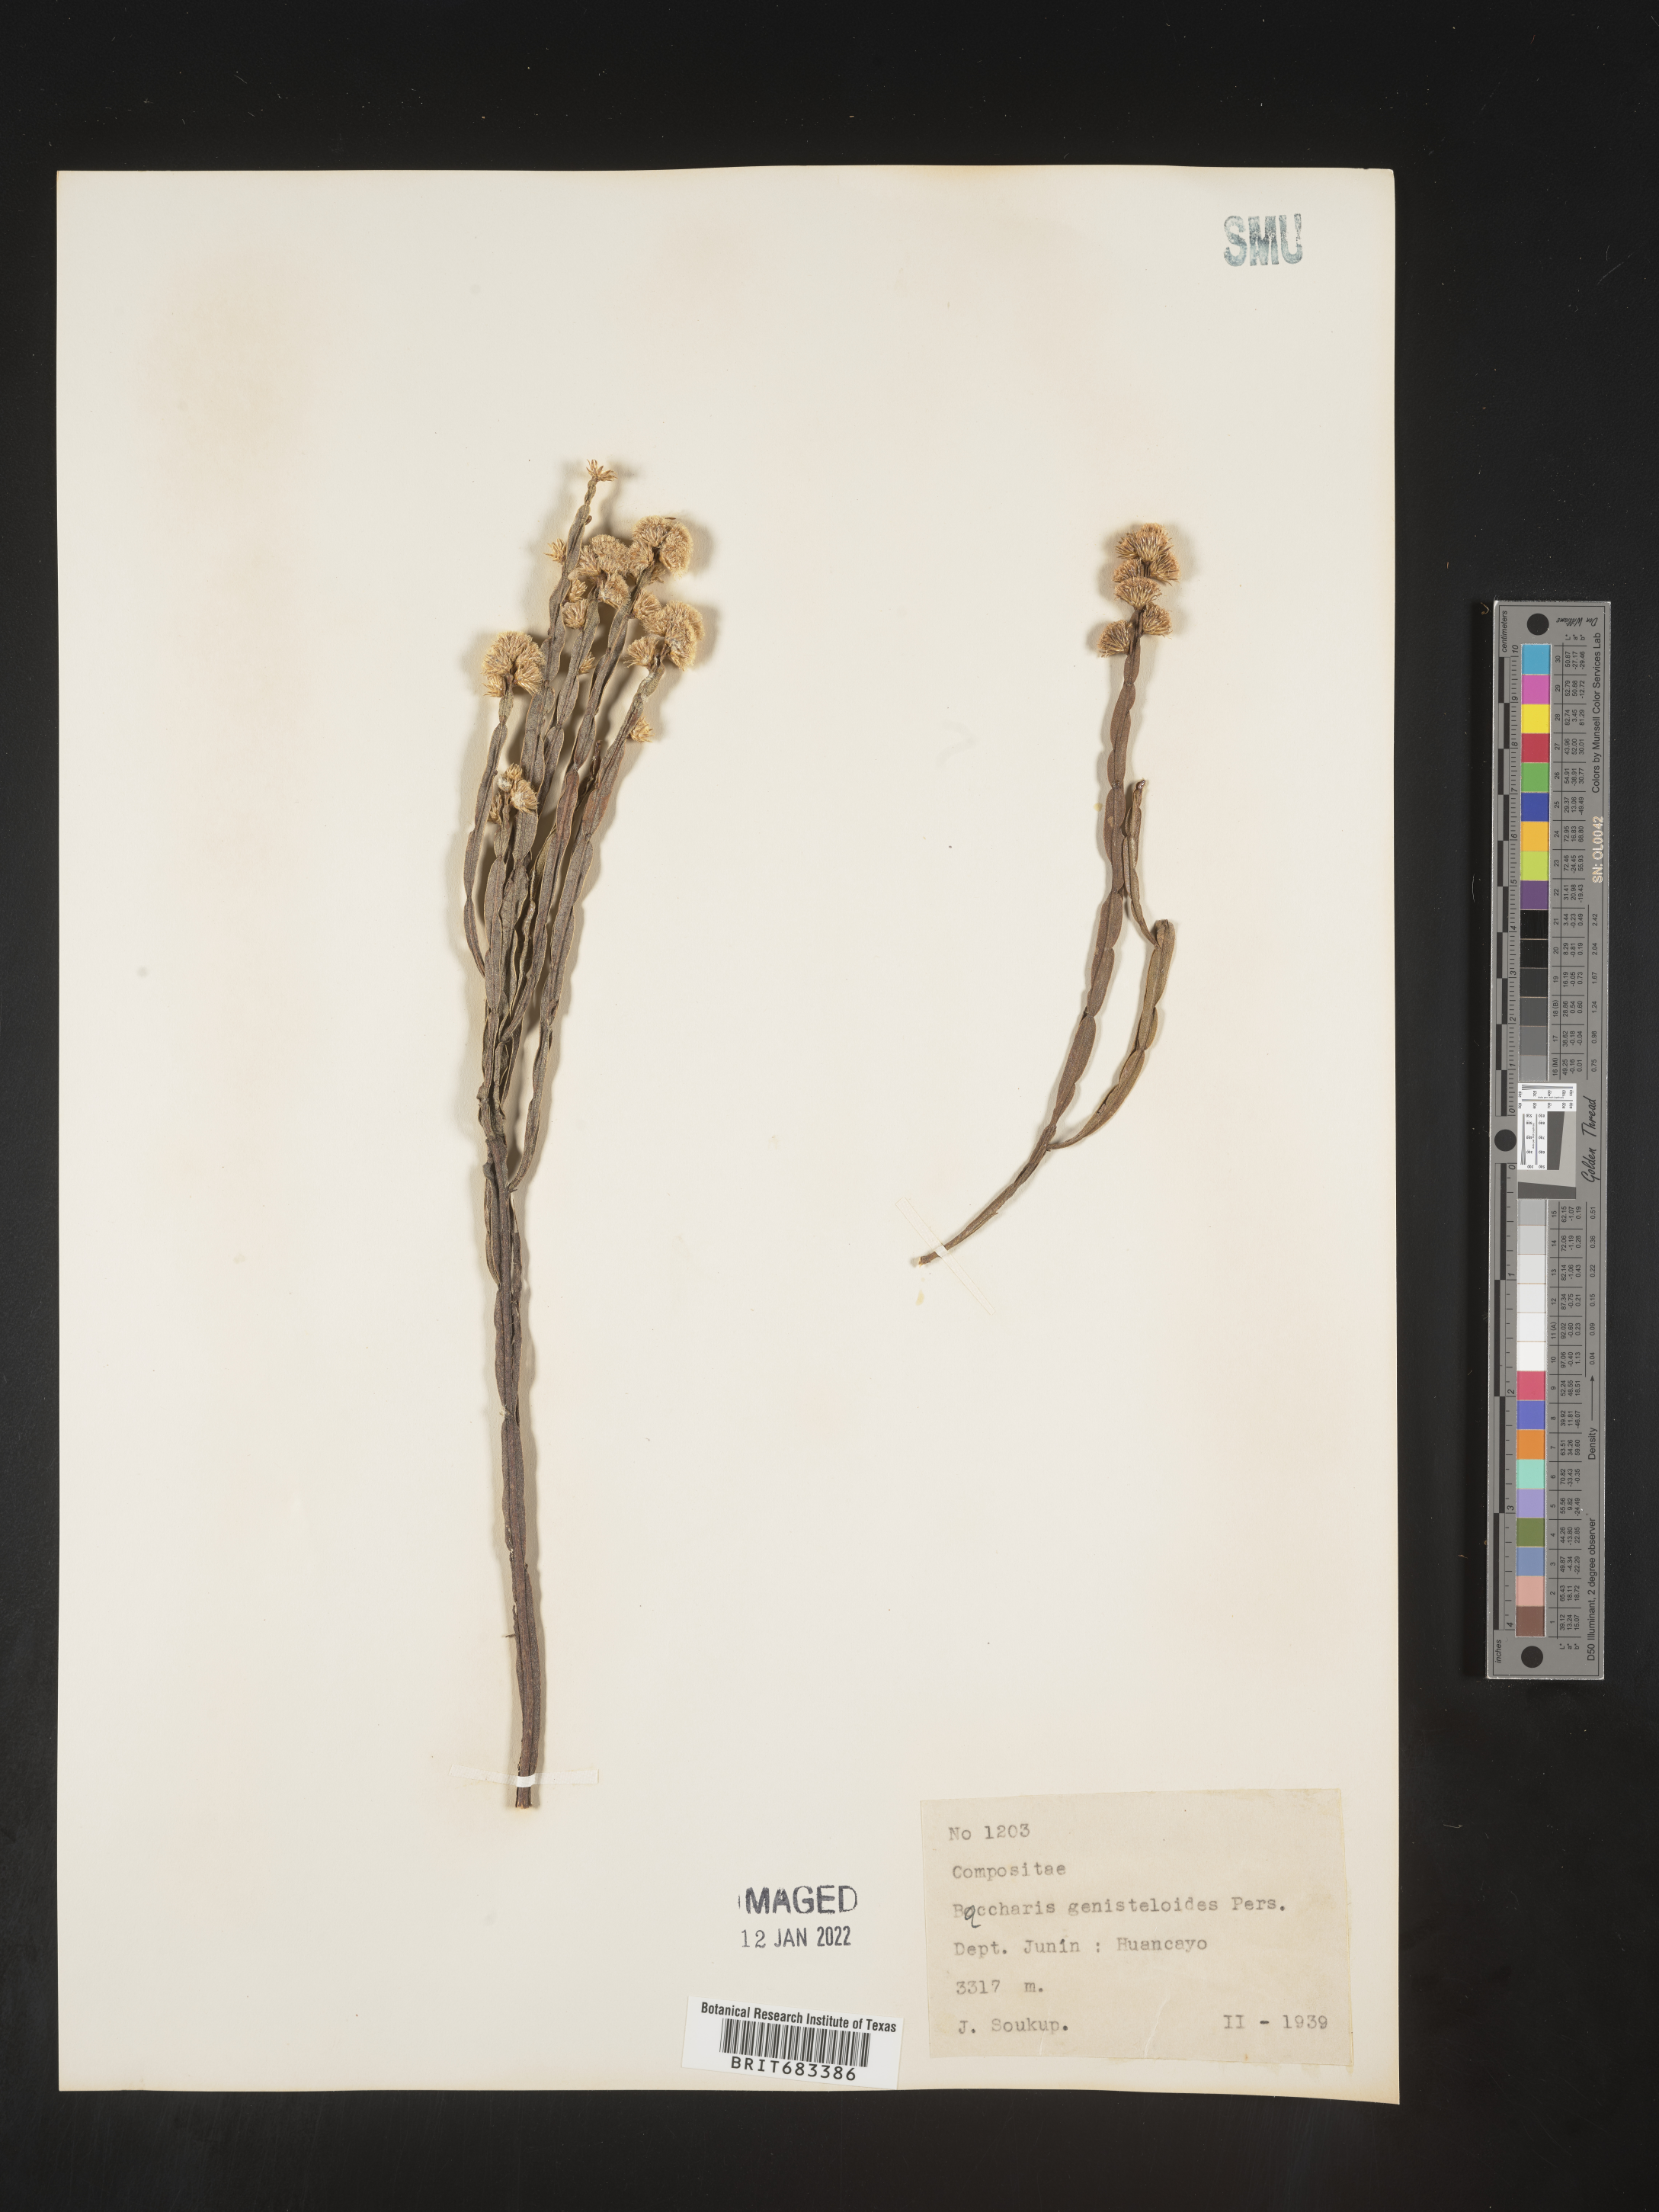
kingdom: Plantae
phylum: Tracheophyta
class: Magnoliopsida
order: Asterales
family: Asteraceae
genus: Baccharis
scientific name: Baccharis
